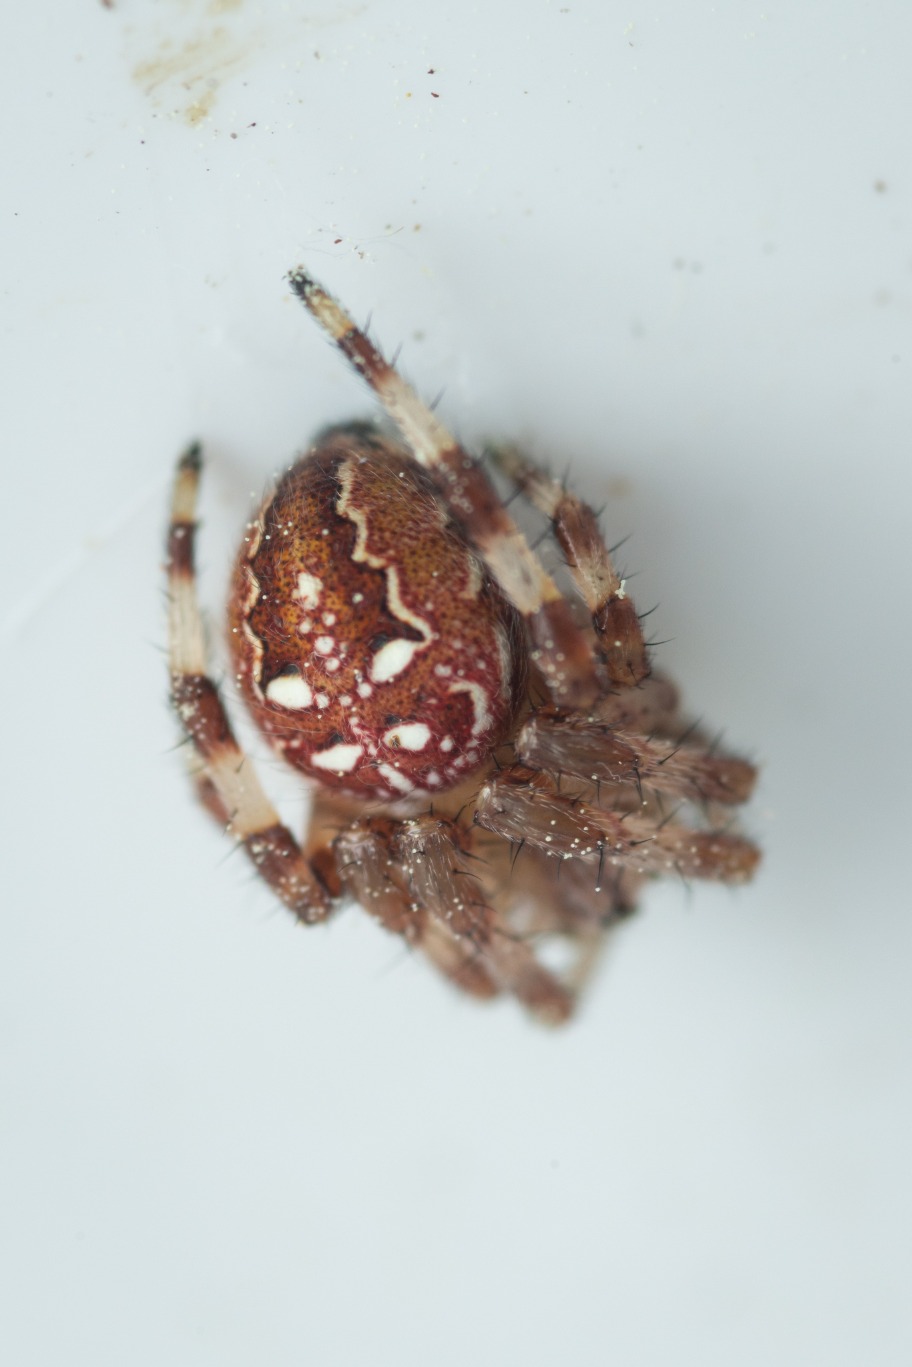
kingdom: Animalia
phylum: Arthropoda
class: Arachnida
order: Araneae
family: Araneidae
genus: Araneus
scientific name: Araneus quadratus
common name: Kvadratedderkop
